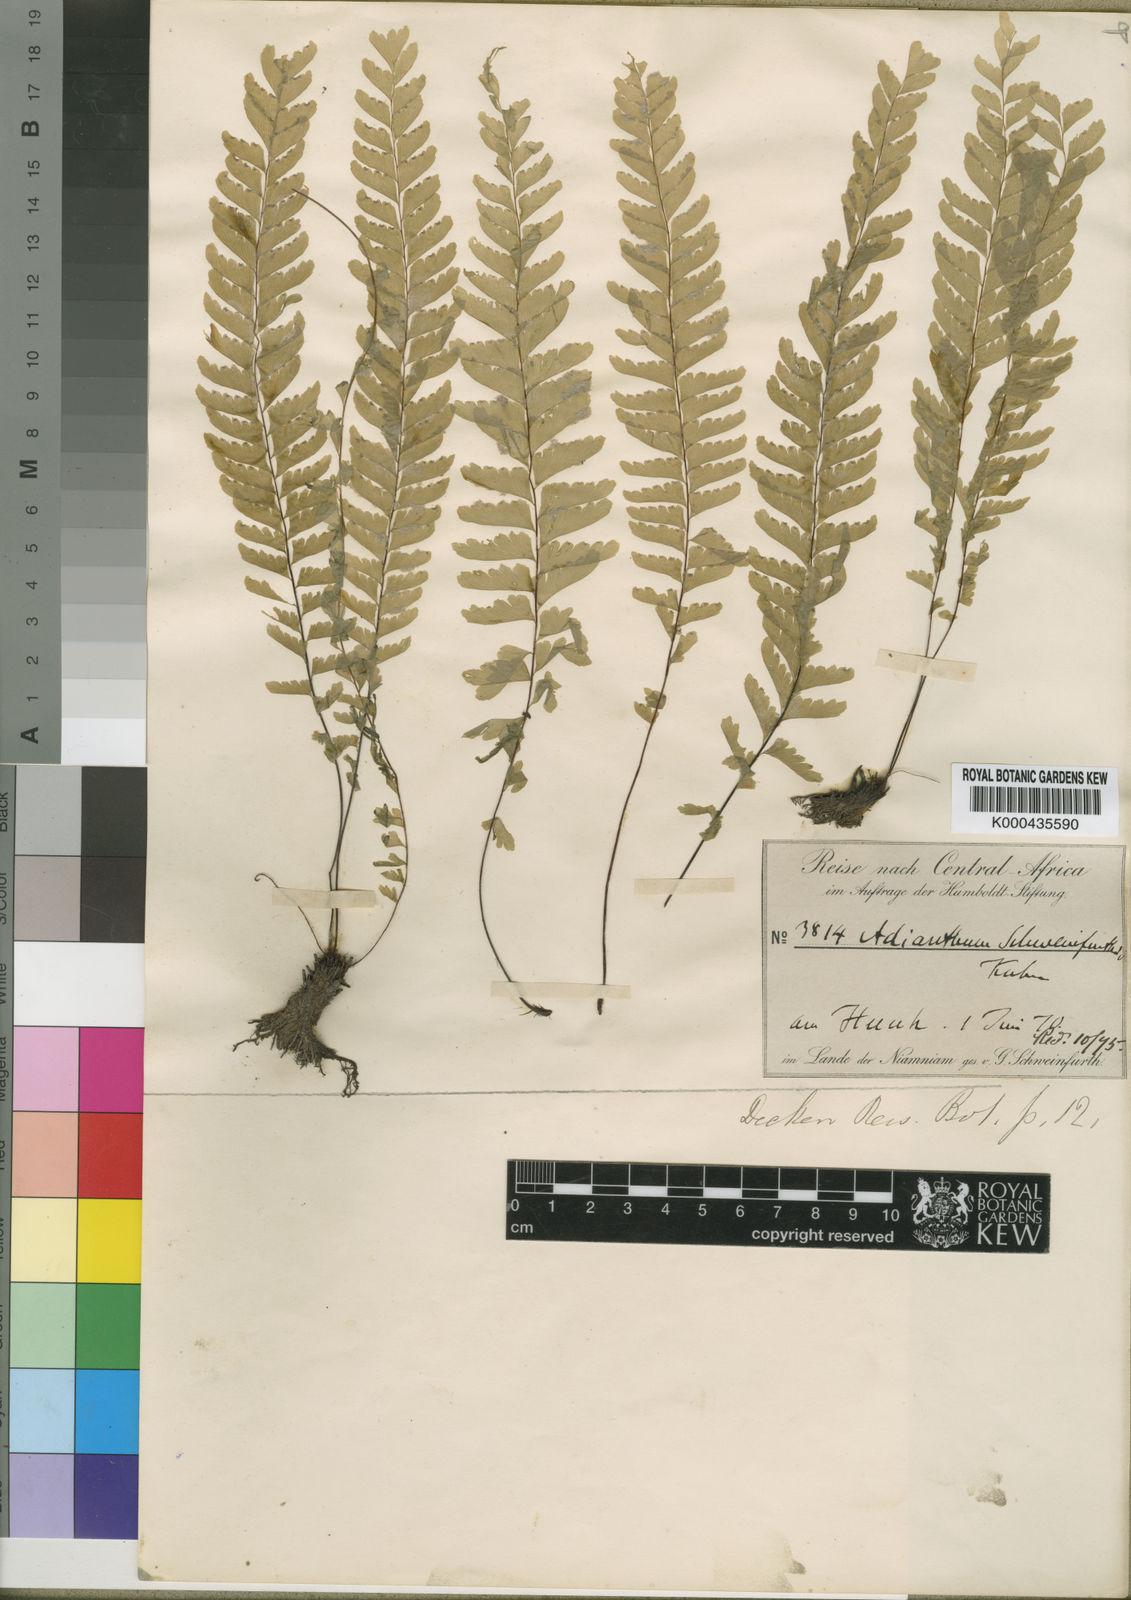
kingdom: Plantae
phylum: Tracheophyta
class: Polypodiopsida
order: Polypodiales
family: Pteridaceae
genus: Adiantum
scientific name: Adiantum schweinfurthii
